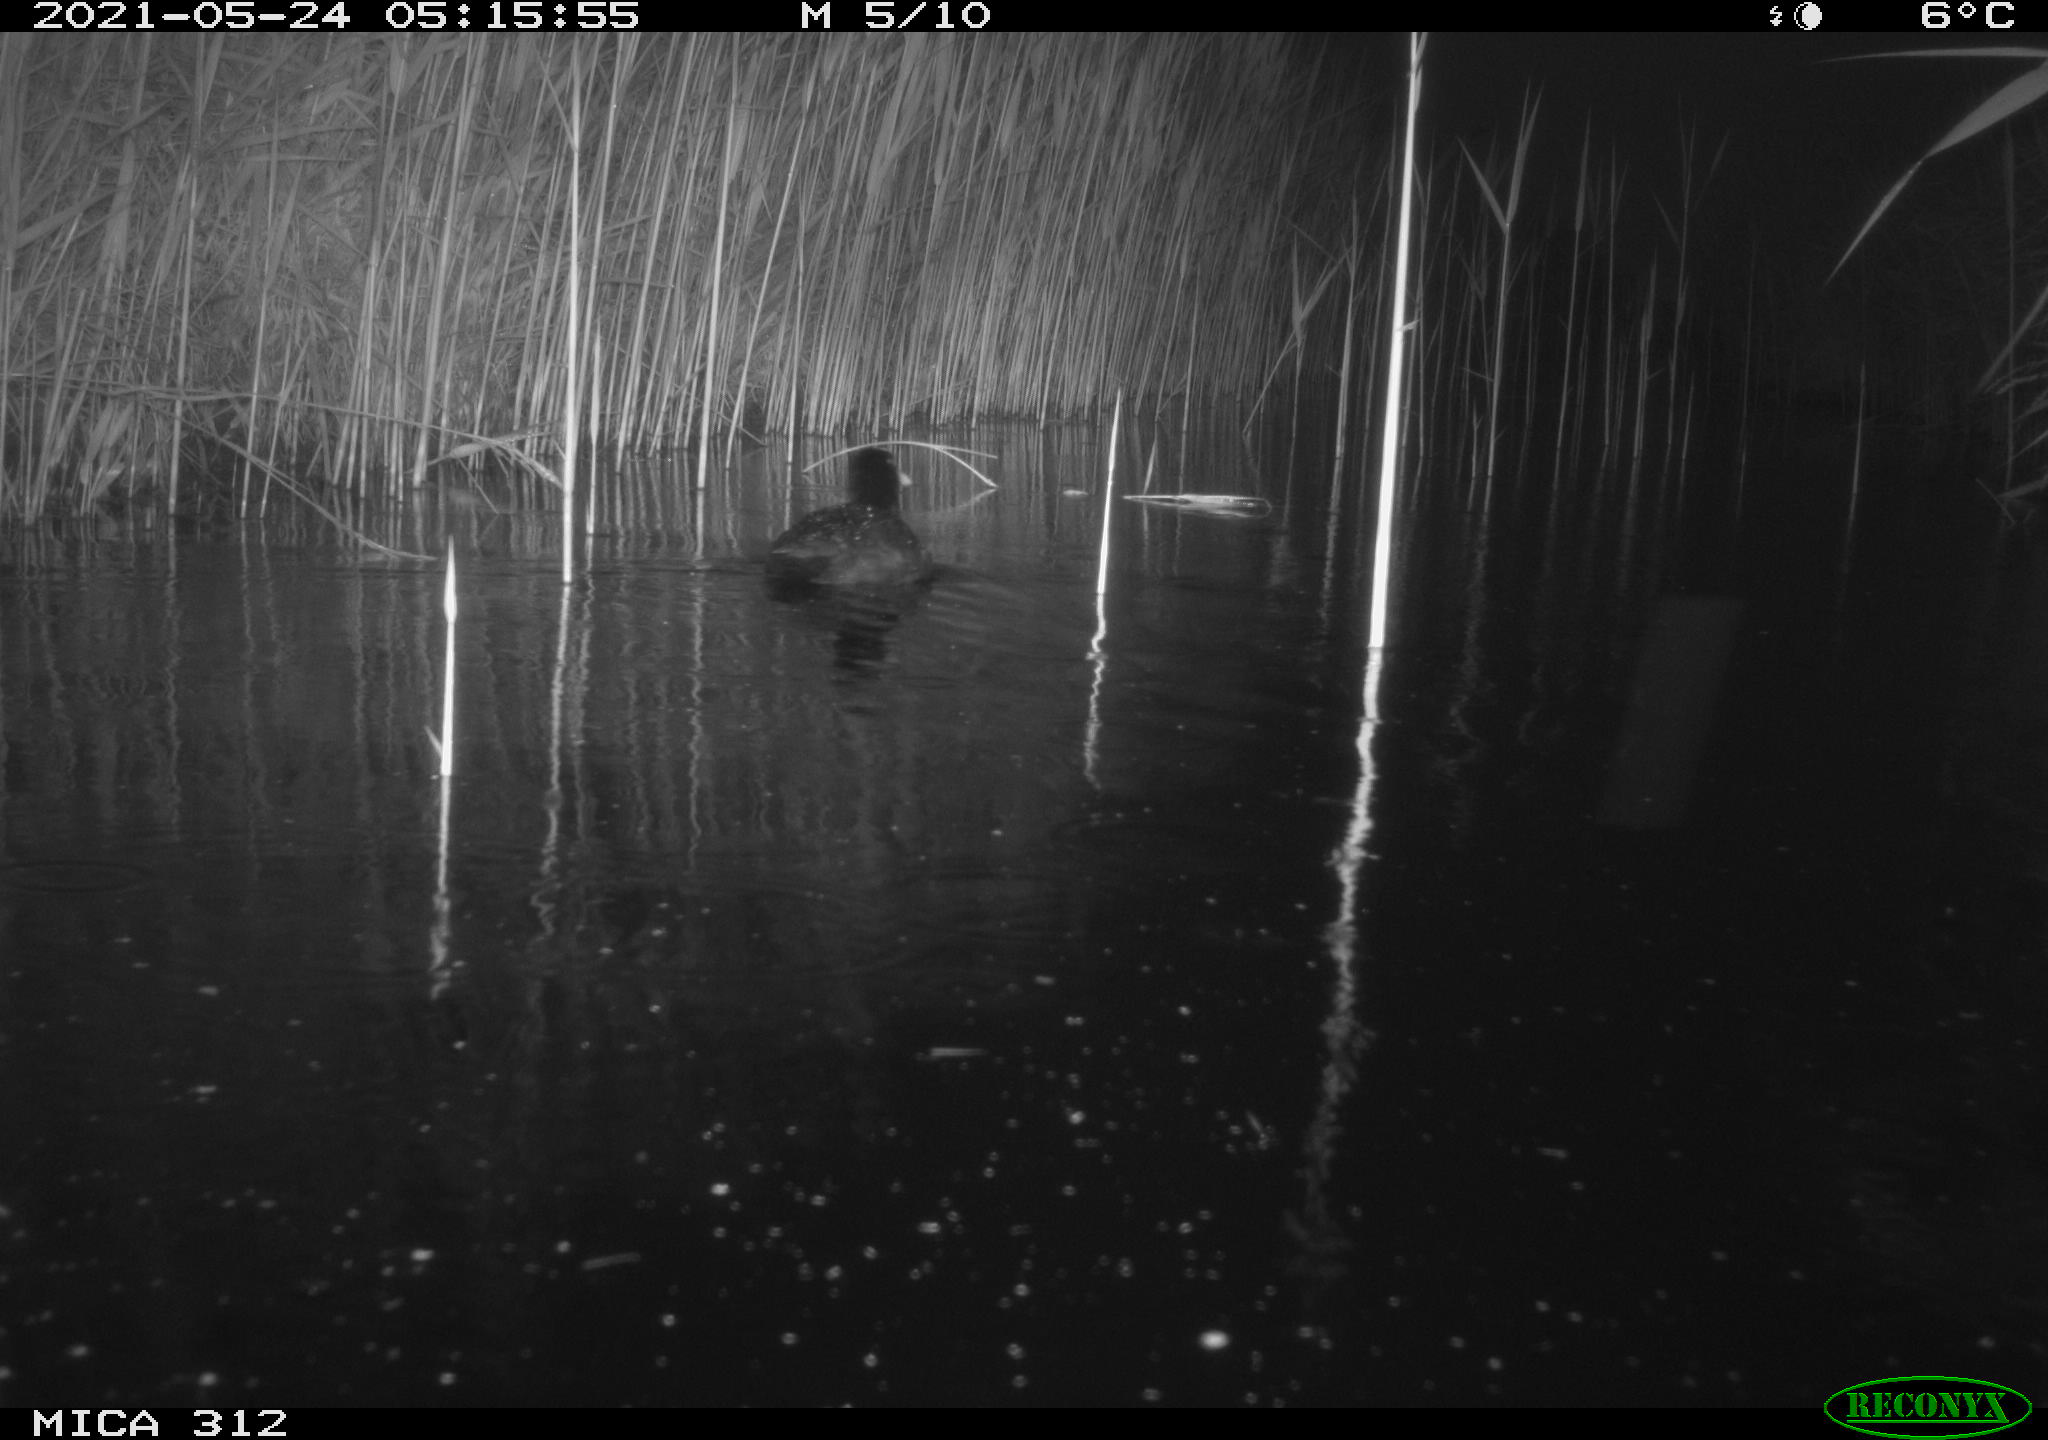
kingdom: Animalia
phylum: Chordata
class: Aves
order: Gruiformes
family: Rallidae
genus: Fulica
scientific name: Fulica atra
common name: Eurasian coot
